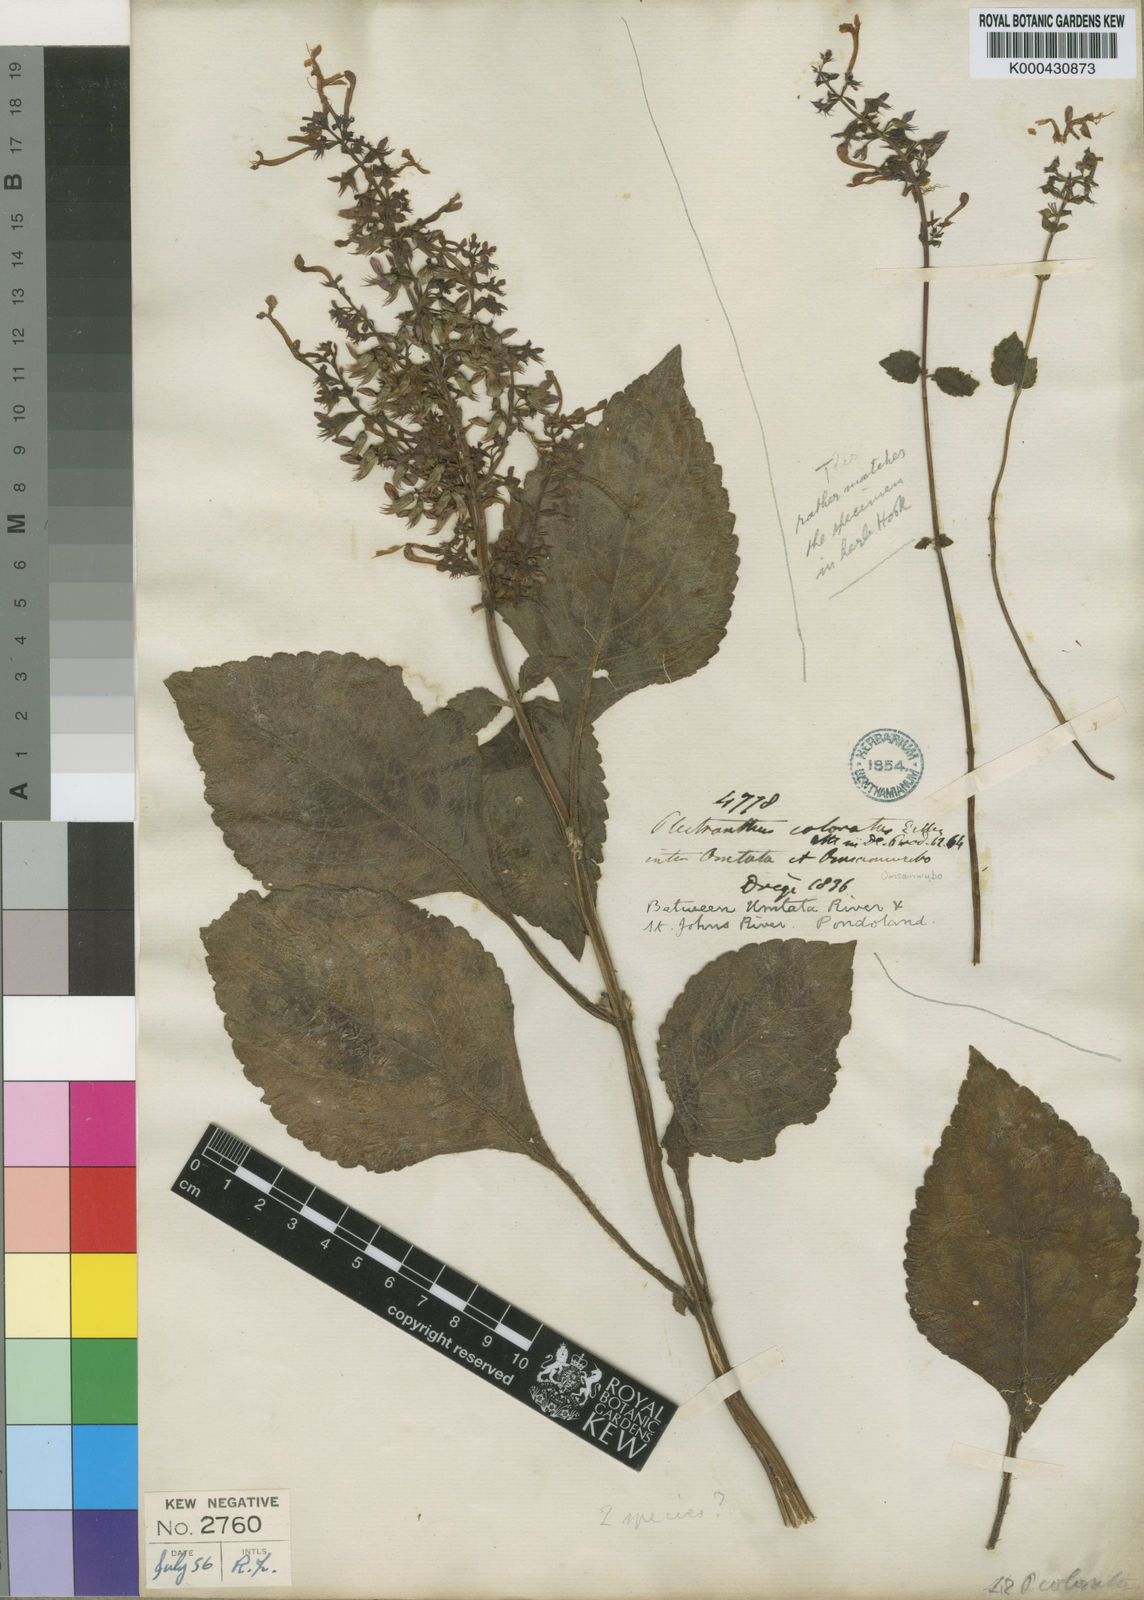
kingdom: Plantae
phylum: Tracheophyta
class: Magnoliopsida
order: Lamiales
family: Lamiaceae
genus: Plectranthus
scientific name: Plectranthus ambiguus
